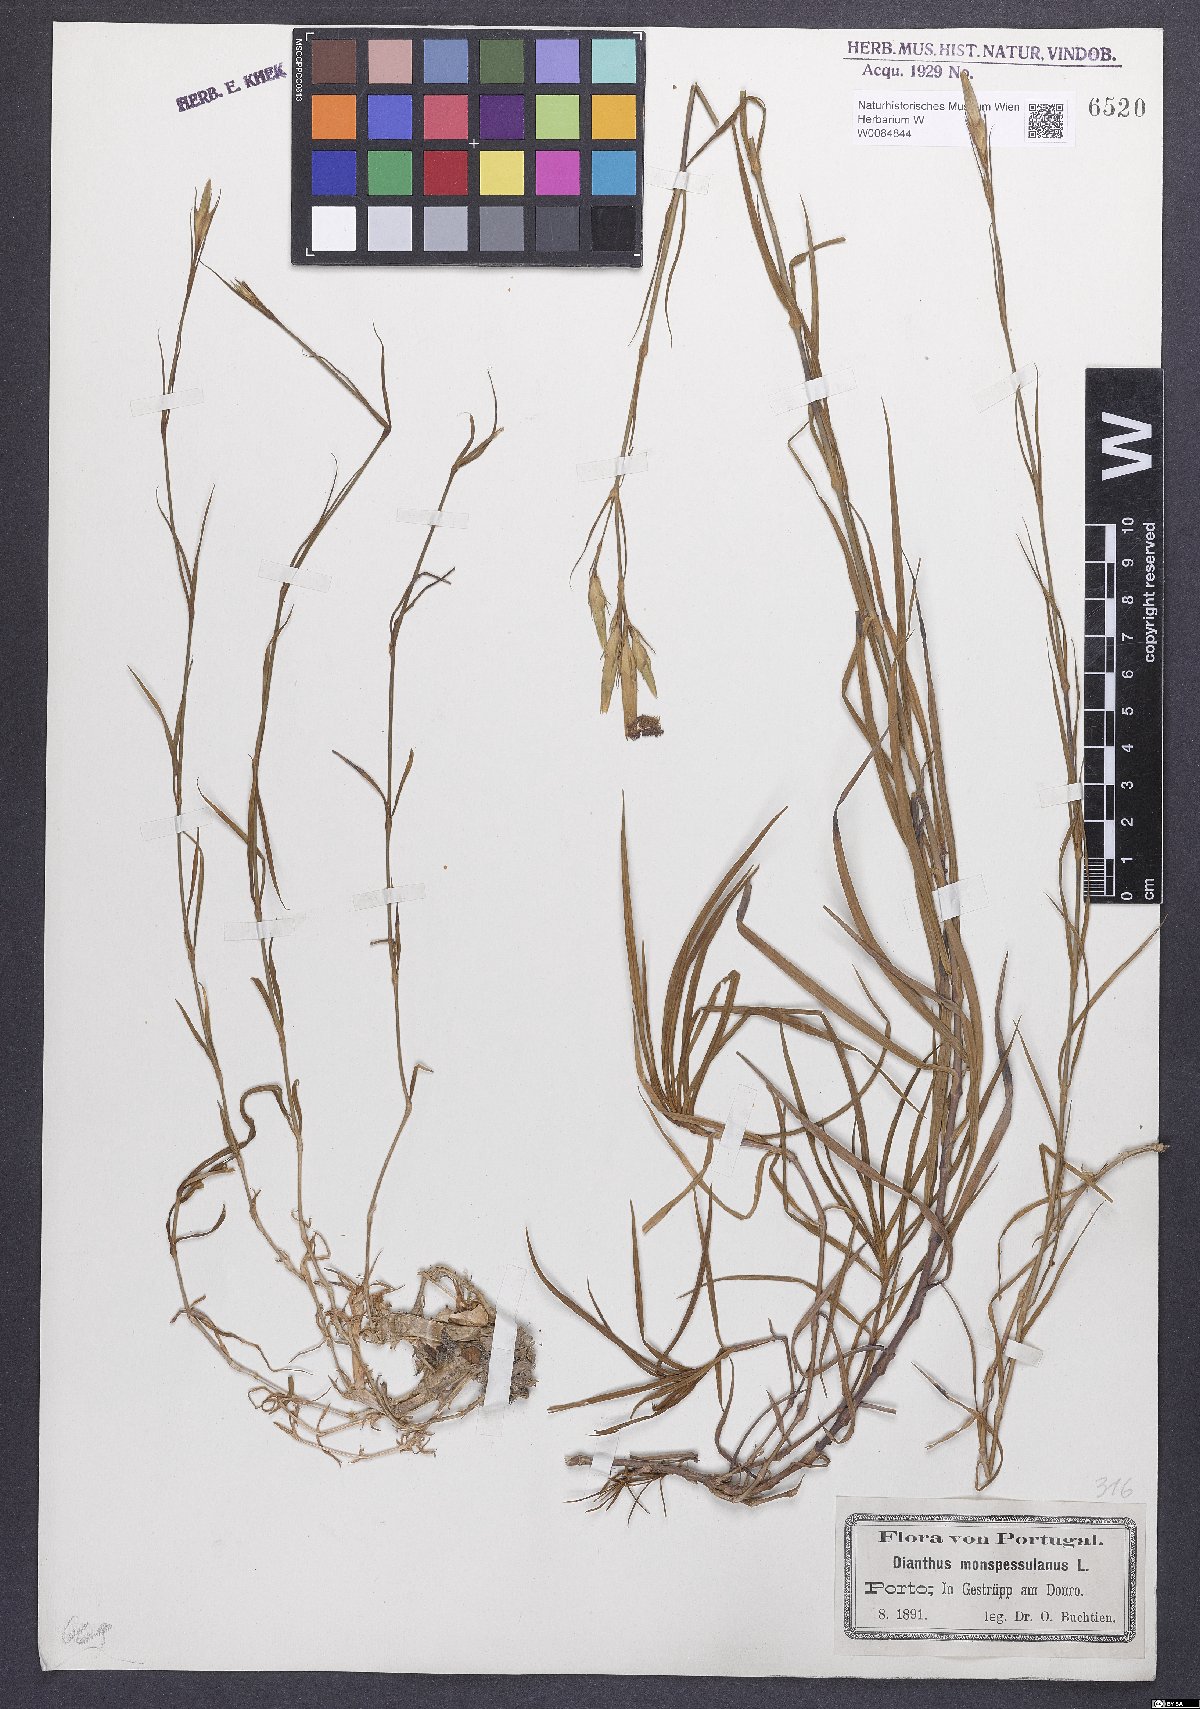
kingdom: Plantae
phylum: Tracheophyta
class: Magnoliopsida
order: Caryophyllales
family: Caryophyllaceae
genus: Dianthus
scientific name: Dianthus hyssopifolius
